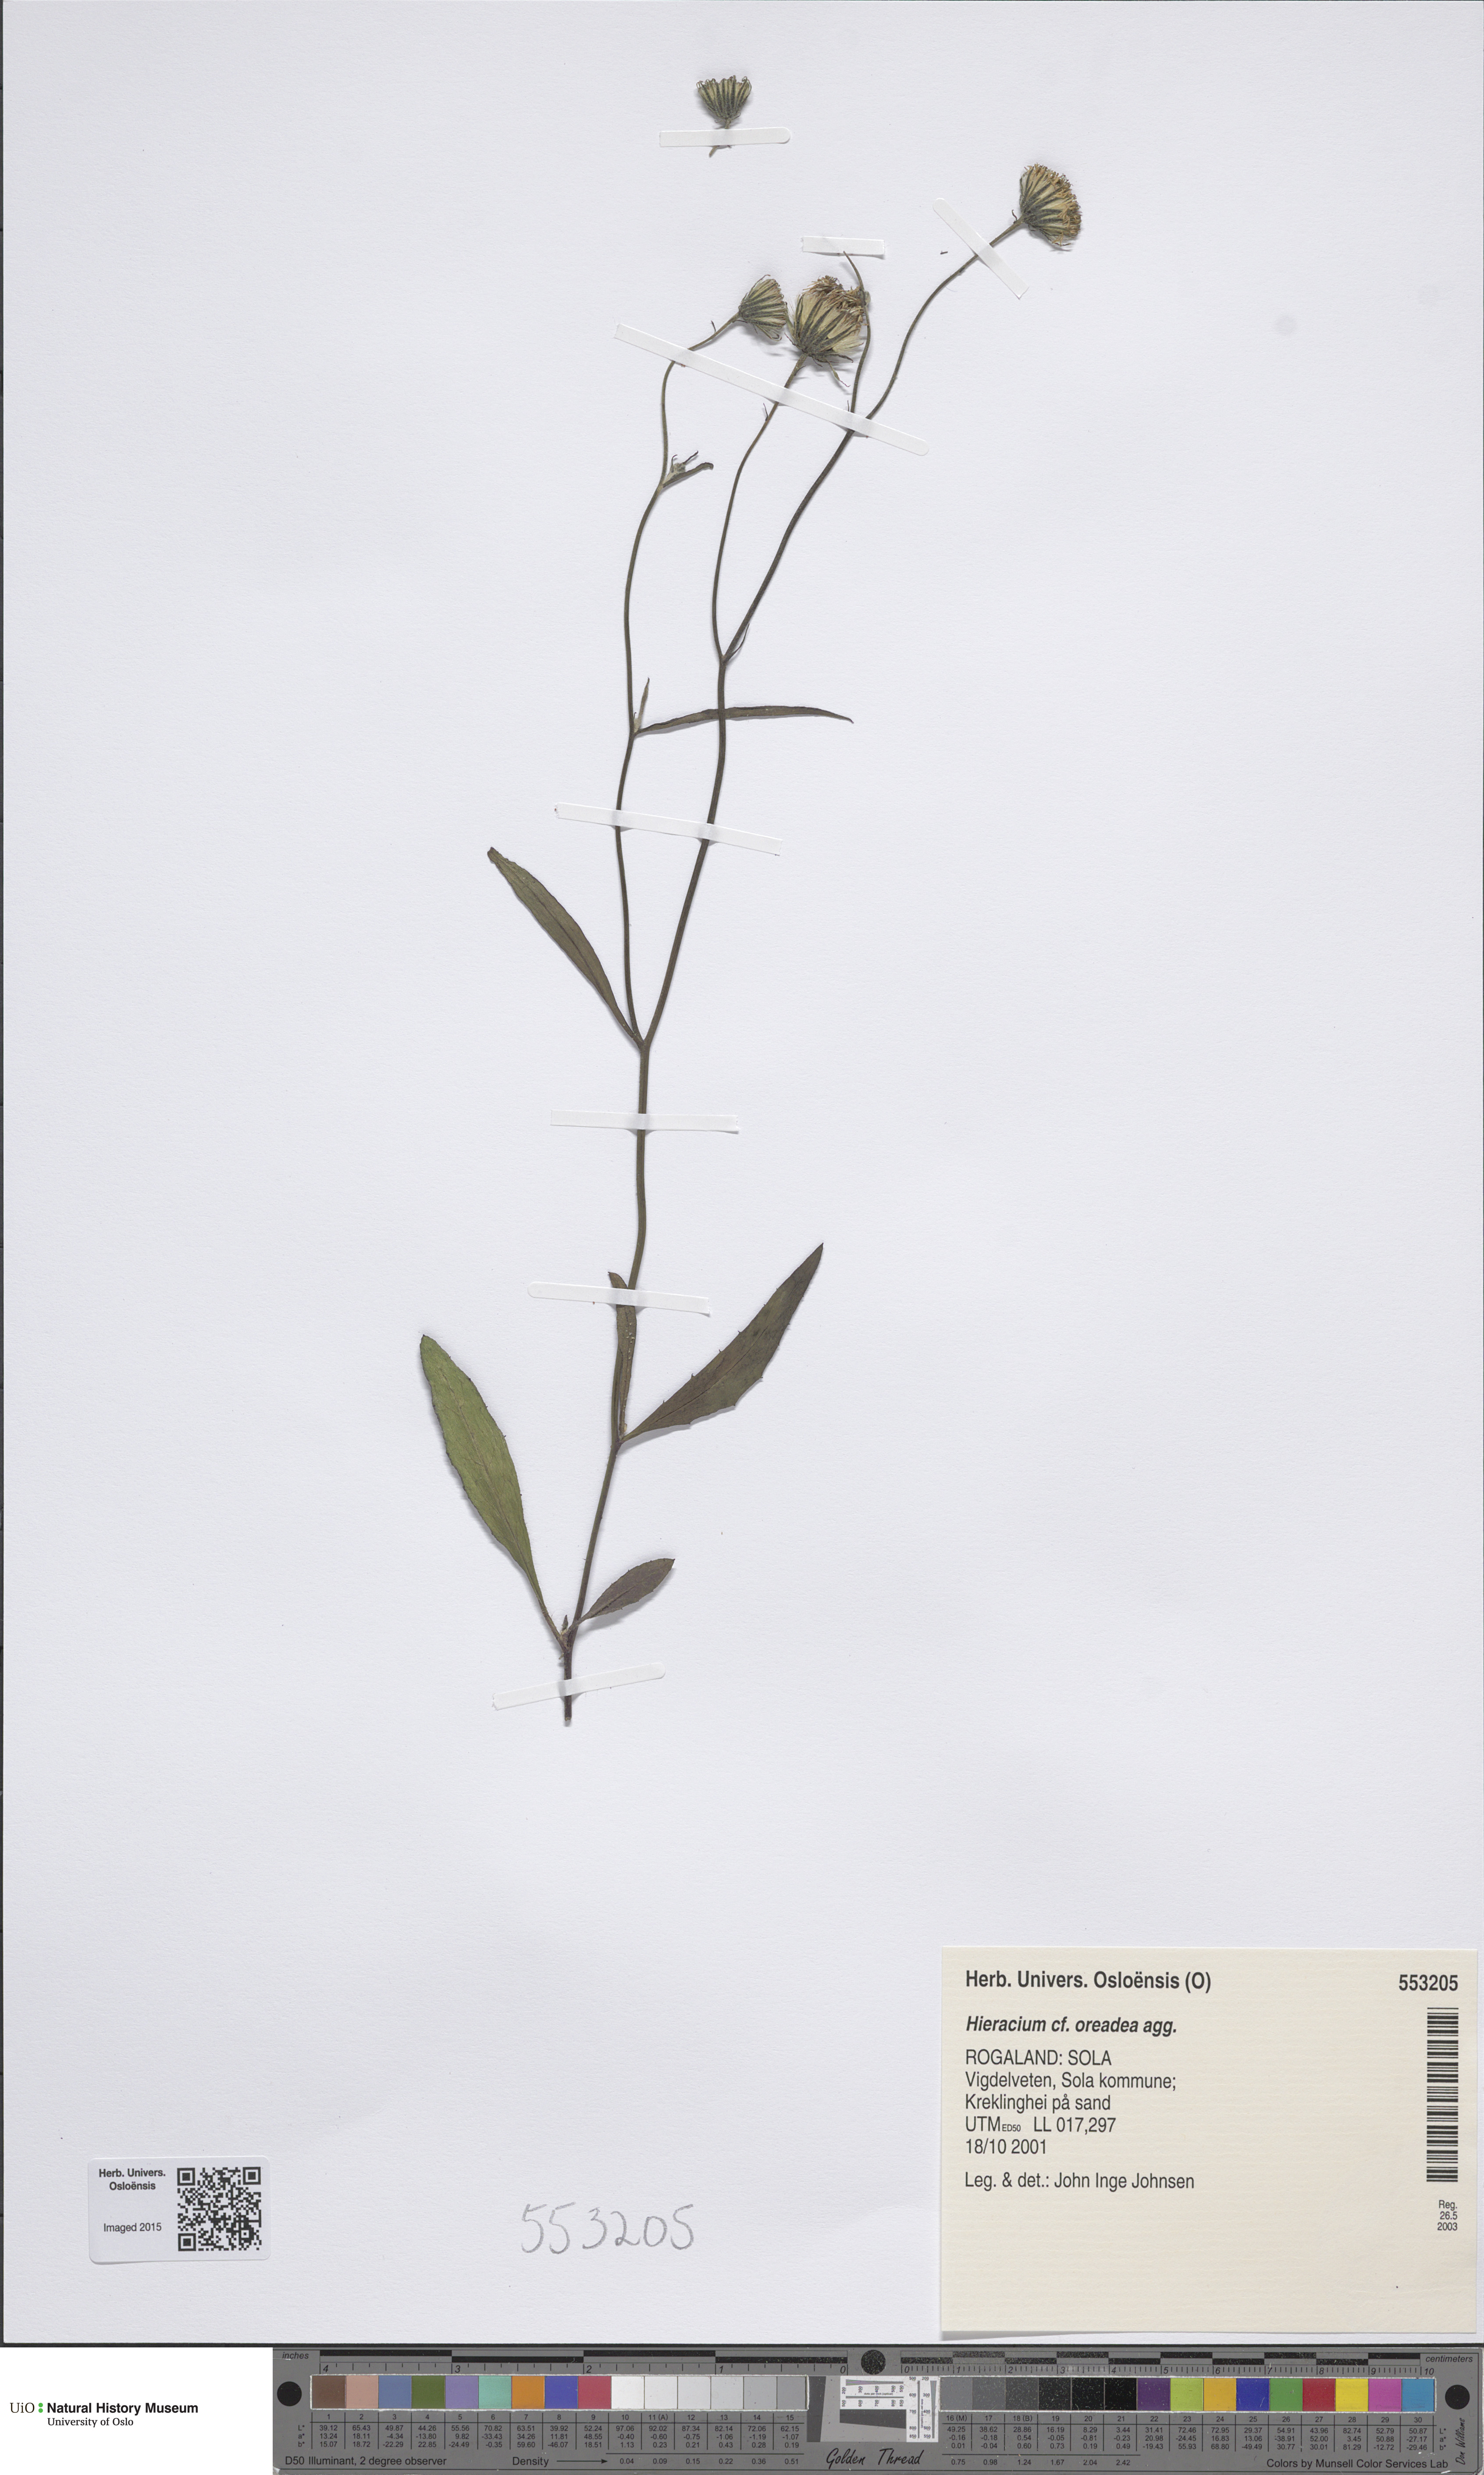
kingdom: Plantae
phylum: Tracheophyta
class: Magnoliopsida
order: Asterales
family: Asteraceae
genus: Hieracium
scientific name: Hieracium
